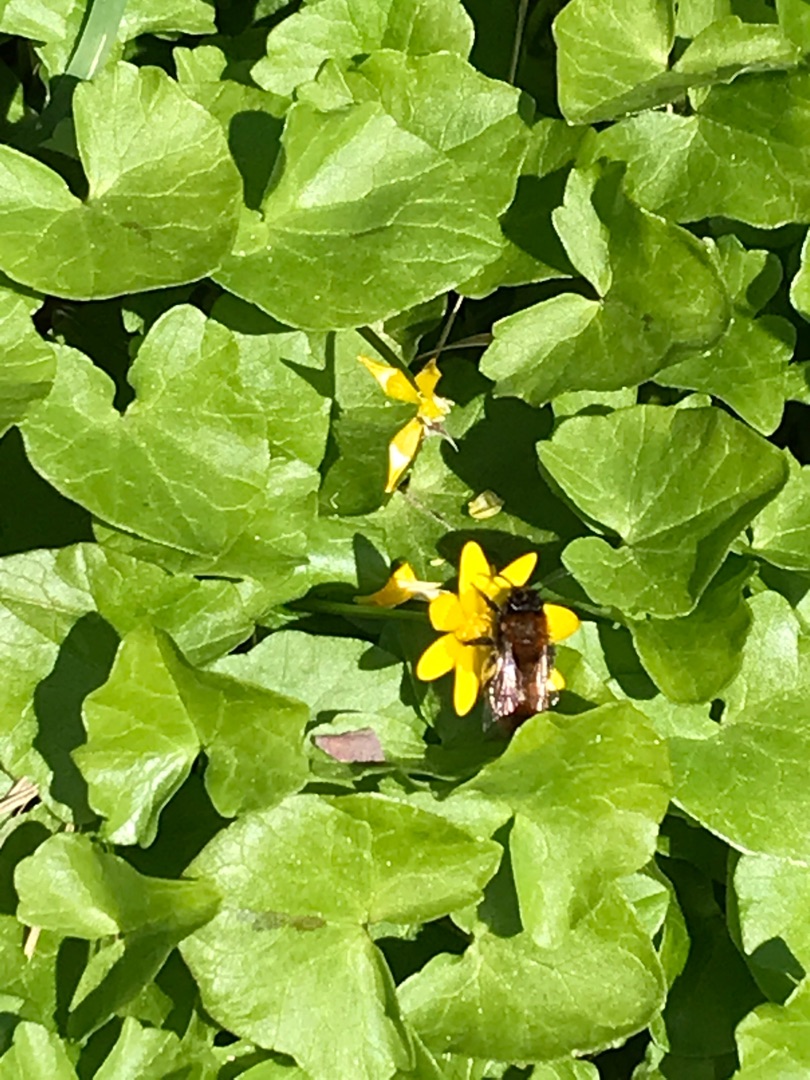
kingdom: Plantae
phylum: Tracheophyta
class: Magnoliopsida
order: Ranunculales
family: Ranunculaceae
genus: Ficaria
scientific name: Ficaria verna
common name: Vorterod
